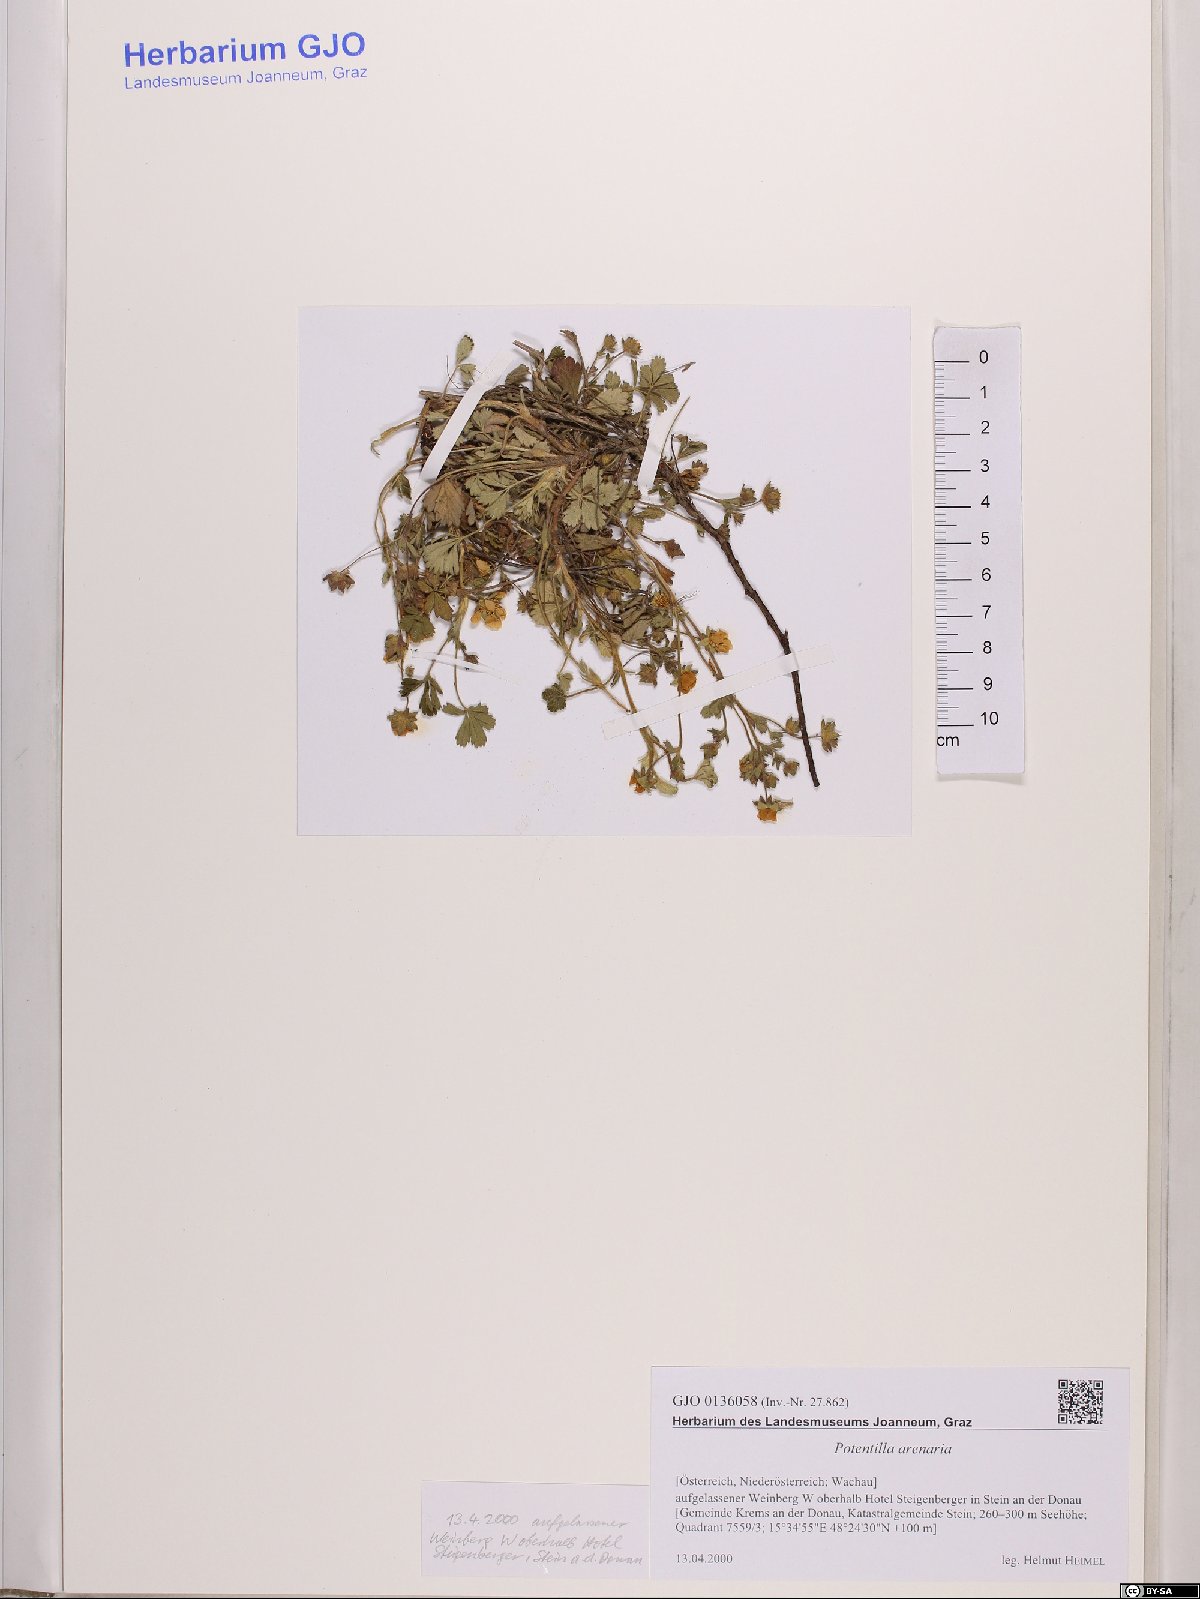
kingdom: Plantae
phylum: Tracheophyta
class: Magnoliopsida
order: Rosales
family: Rosaceae
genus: Potentilla
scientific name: Potentilla cinerea
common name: Ashy cinquefoil
